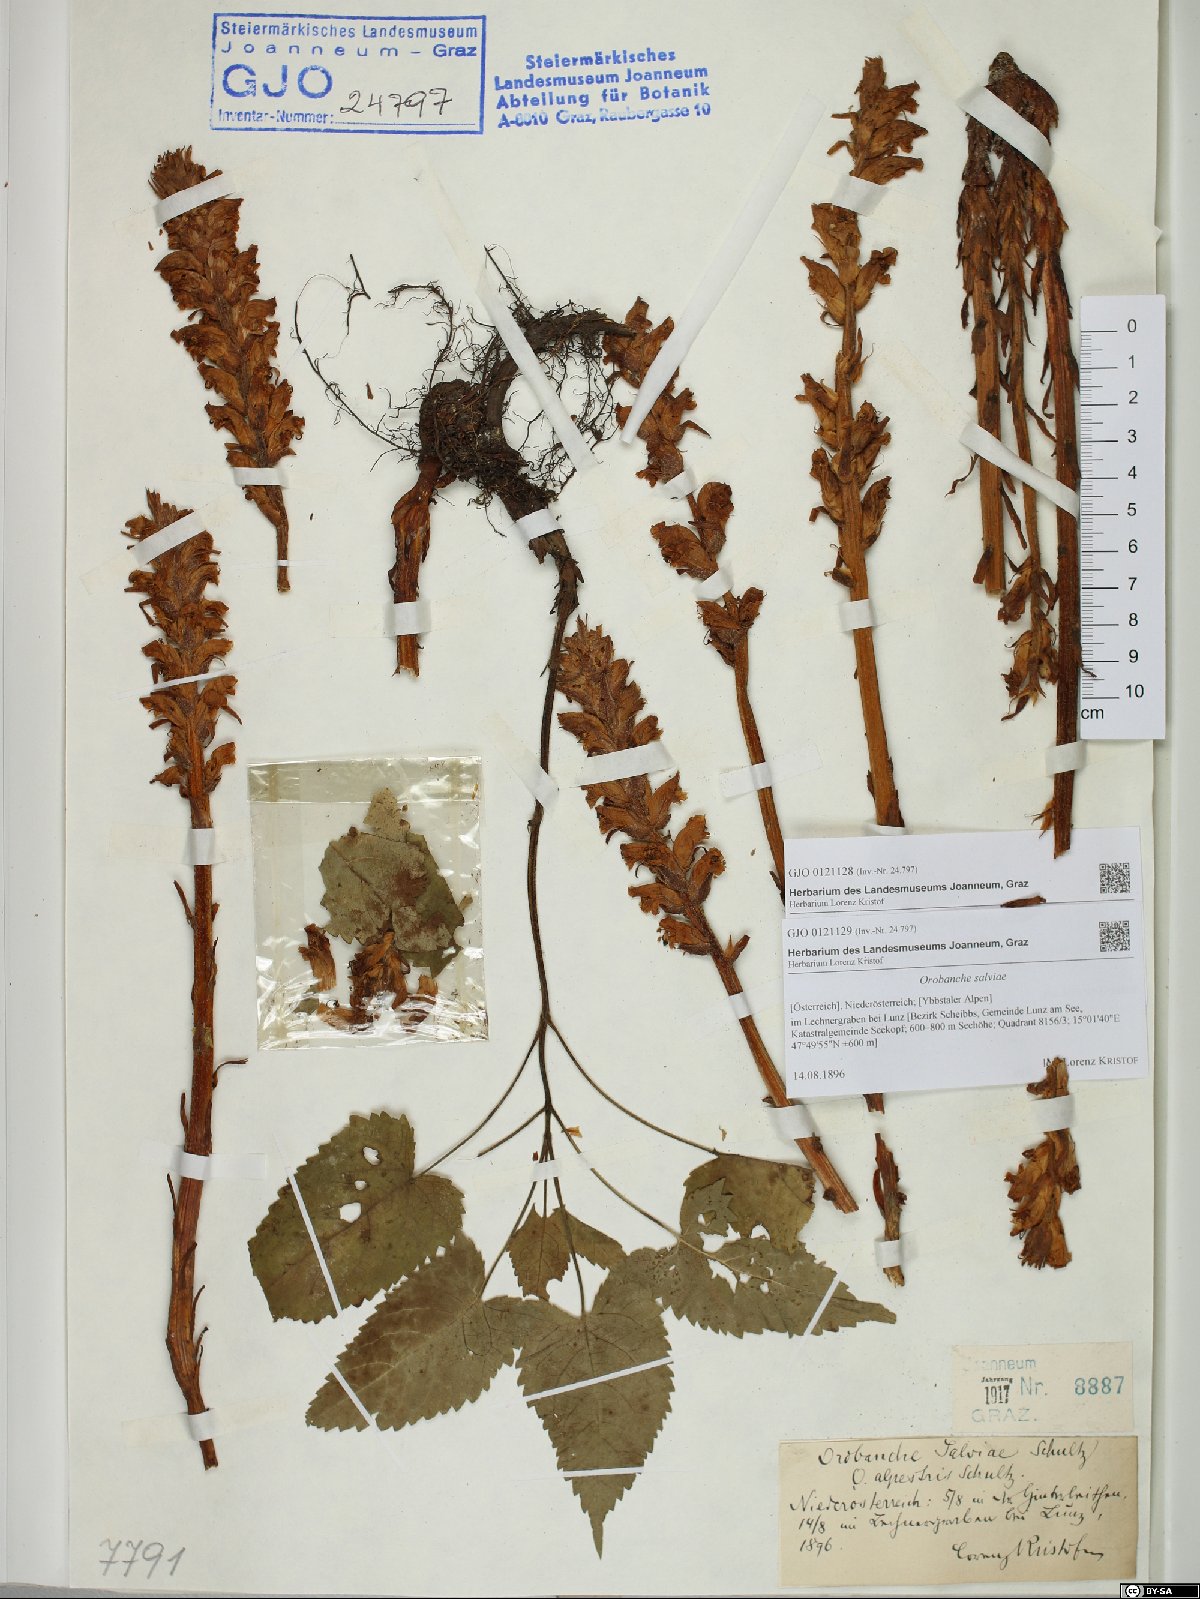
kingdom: Plantae
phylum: Tracheophyta
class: Magnoliopsida
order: Lamiales
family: Orobanchaceae
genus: Orobanche
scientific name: Orobanche salviae
